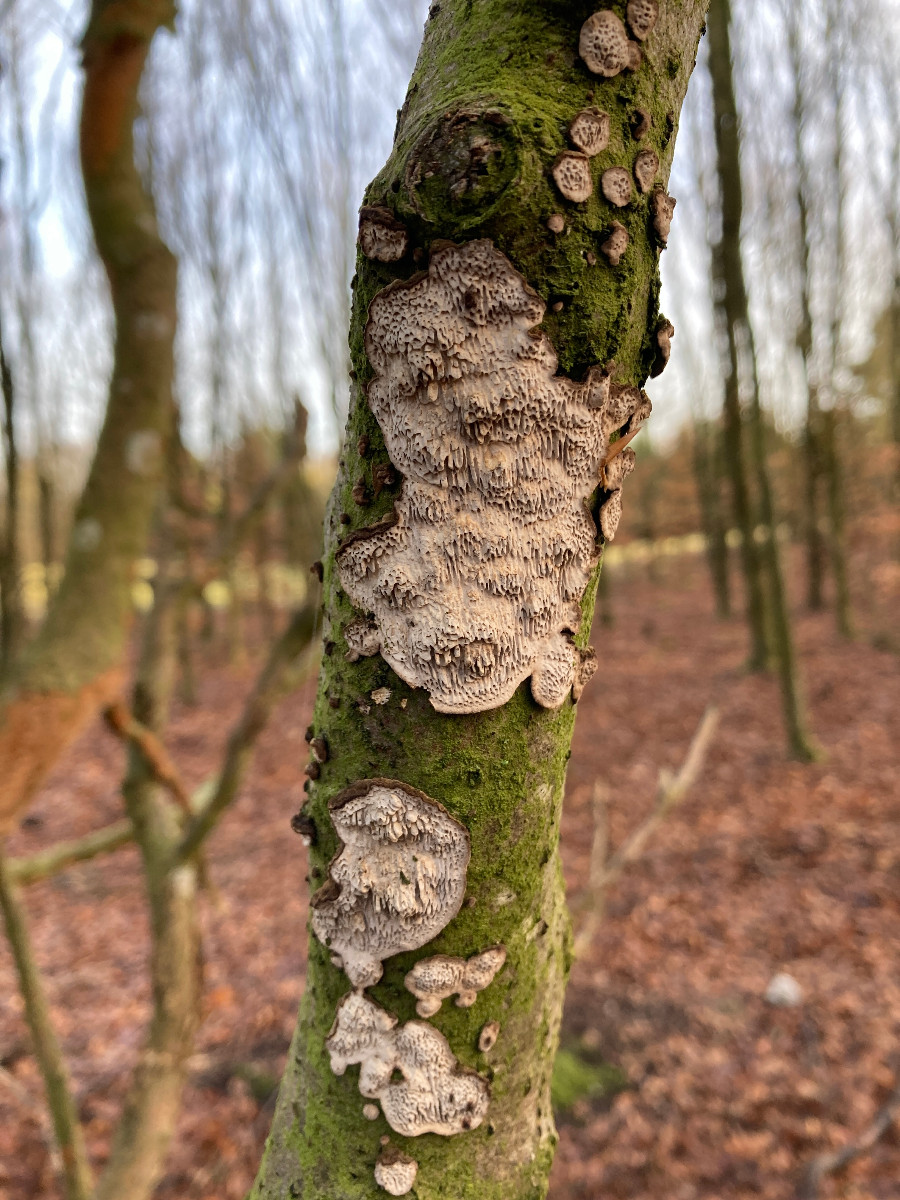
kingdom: Fungi
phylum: Basidiomycota
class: Agaricomycetes
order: Polyporales
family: Polyporaceae
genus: Podofomes
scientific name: Podofomes mollis
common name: blød begporesvamp
